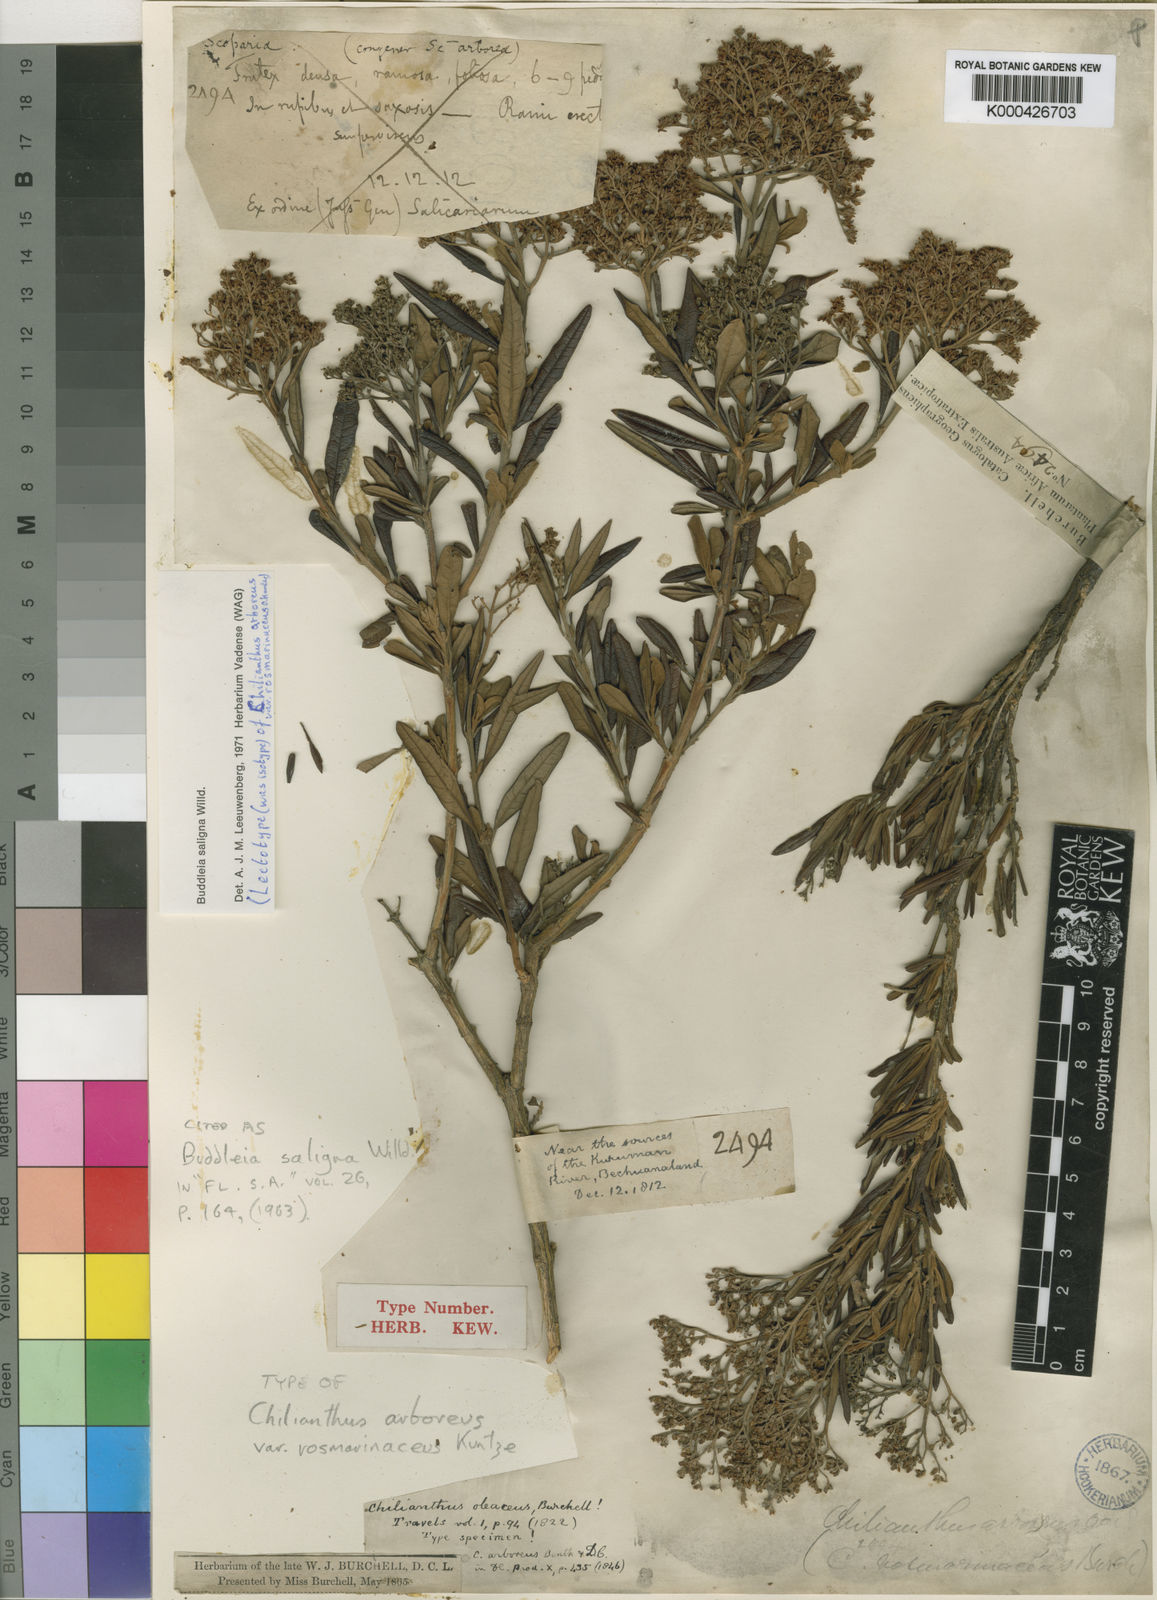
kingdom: Plantae
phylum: Tracheophyta
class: Magnoliopsida
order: Lamiales
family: Scrophulariaceae
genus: Buddleja
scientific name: Buddleja saligna
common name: False olive
